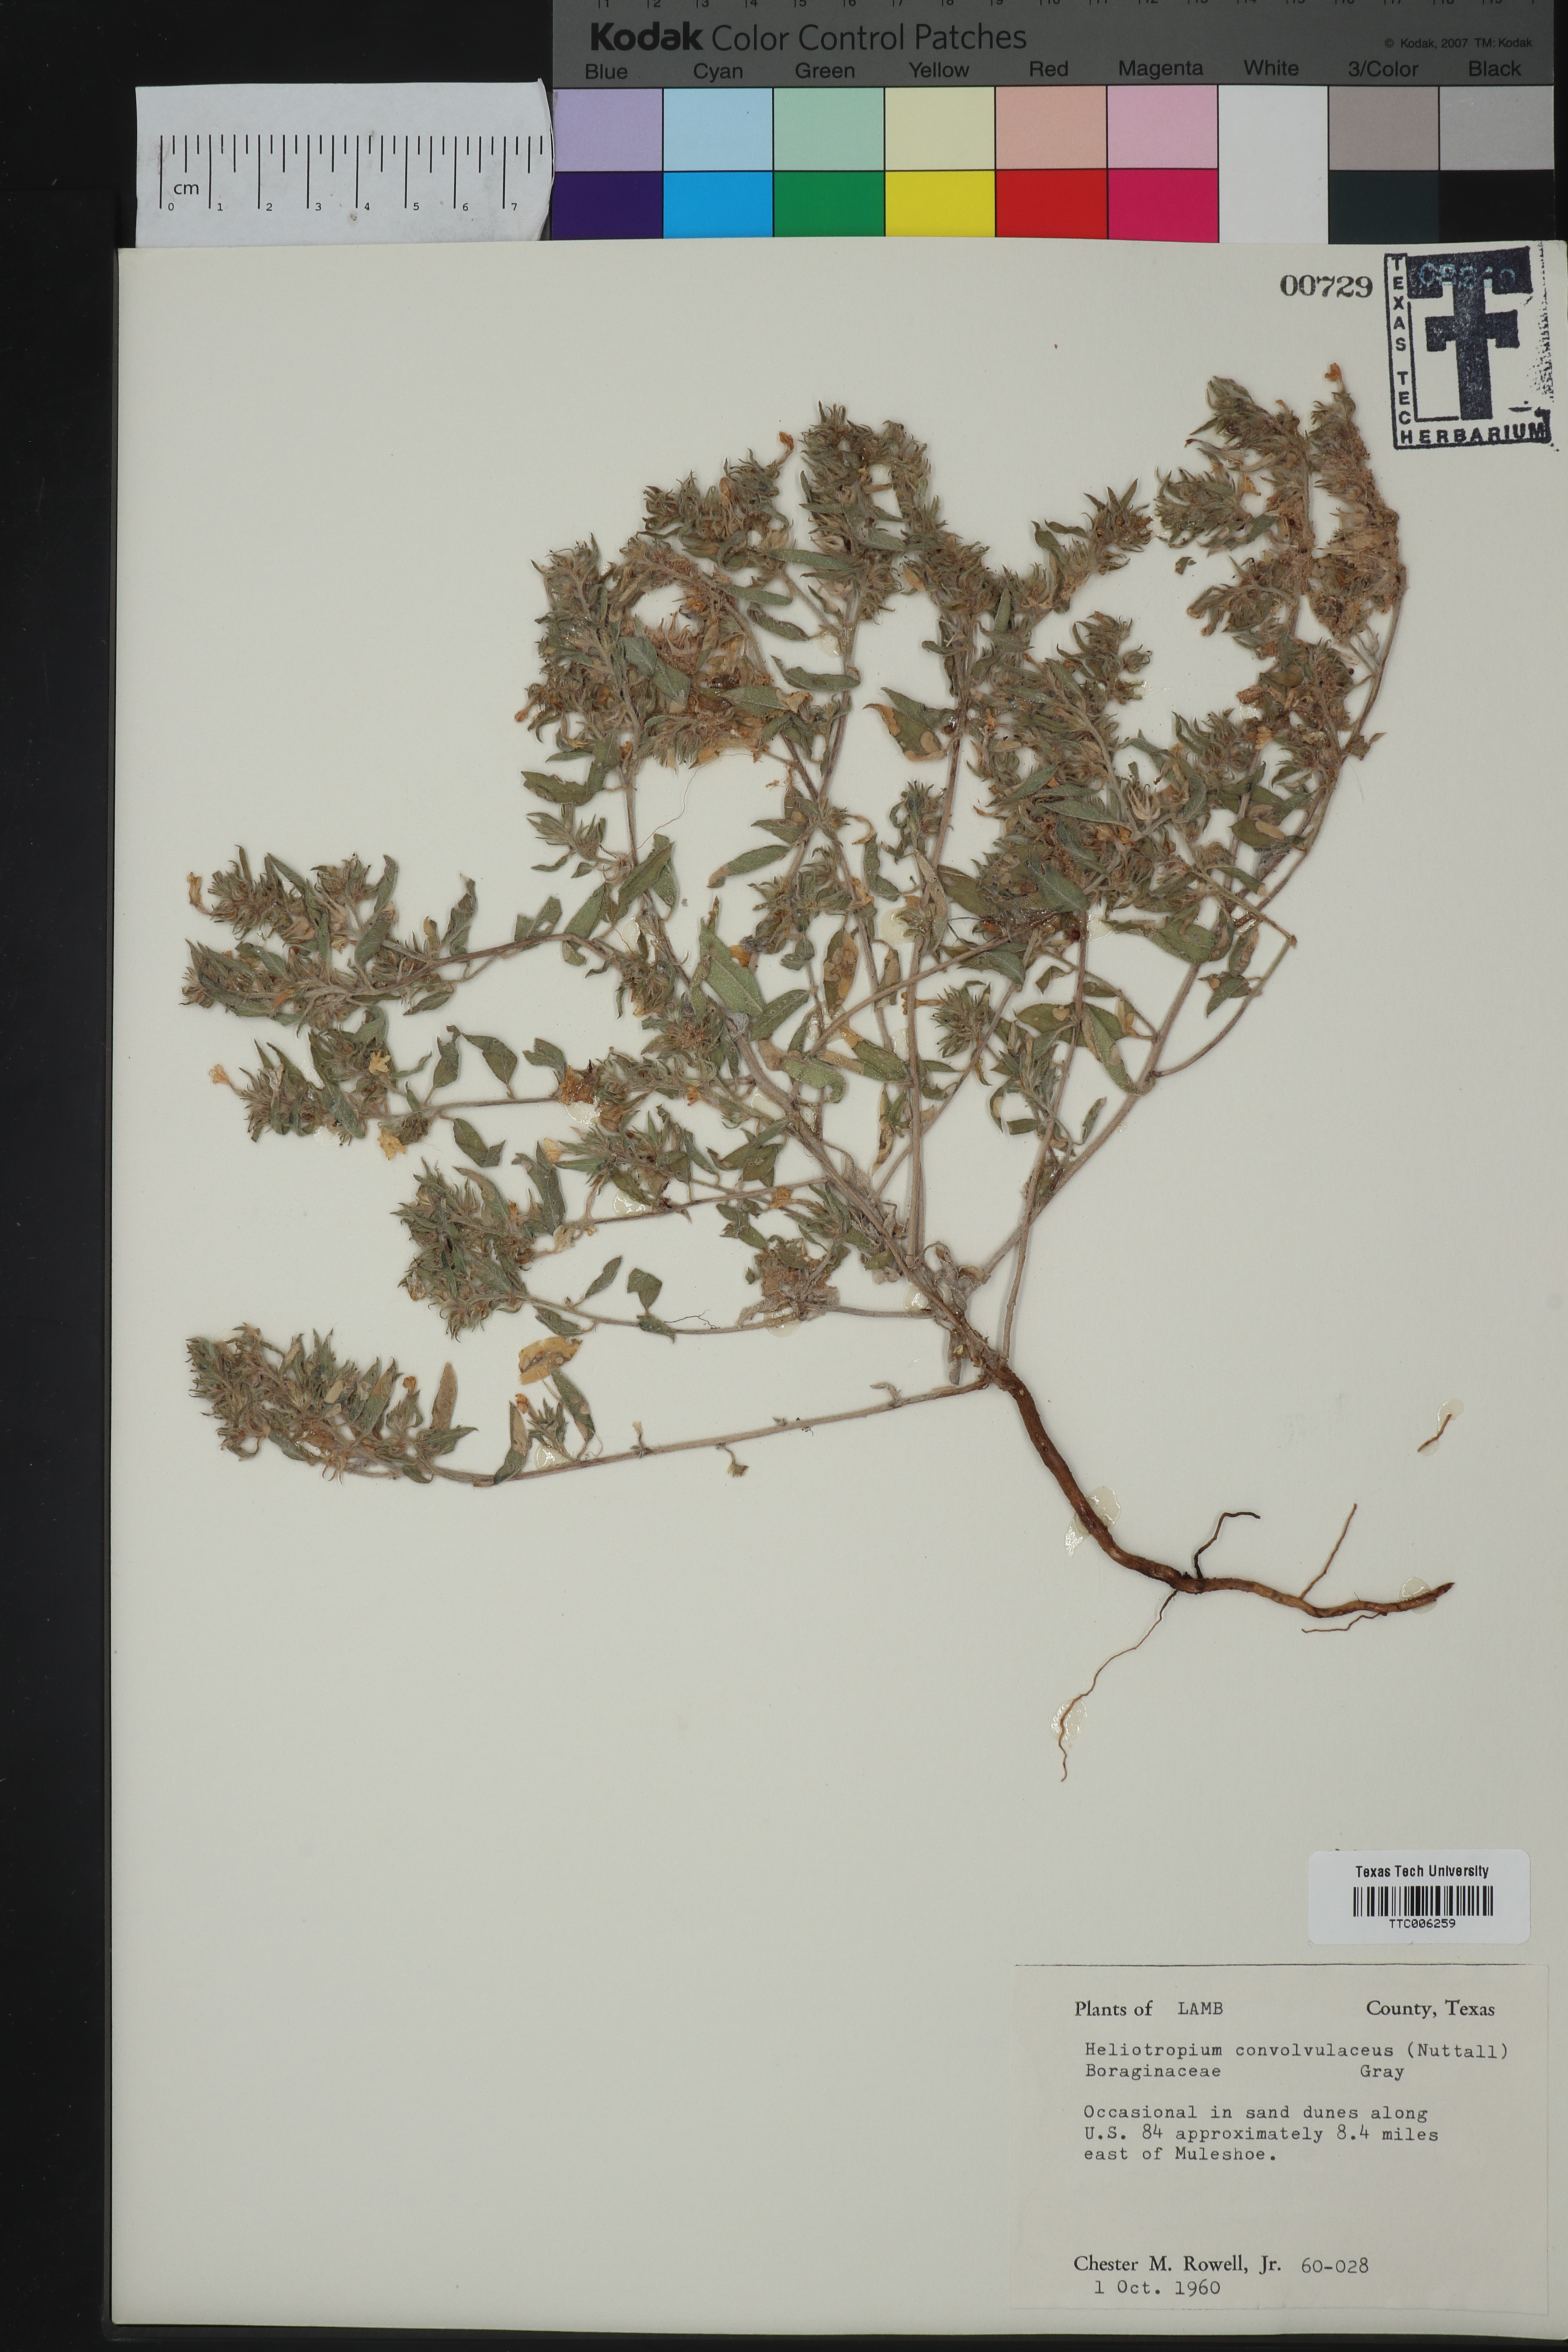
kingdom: Plantae
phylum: Tracheophyta
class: Magnoliopsida
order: Boraginales
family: Heliotropiaceae
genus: Euploca
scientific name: Euploca convolvulacea
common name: Bindweed heliotrope
